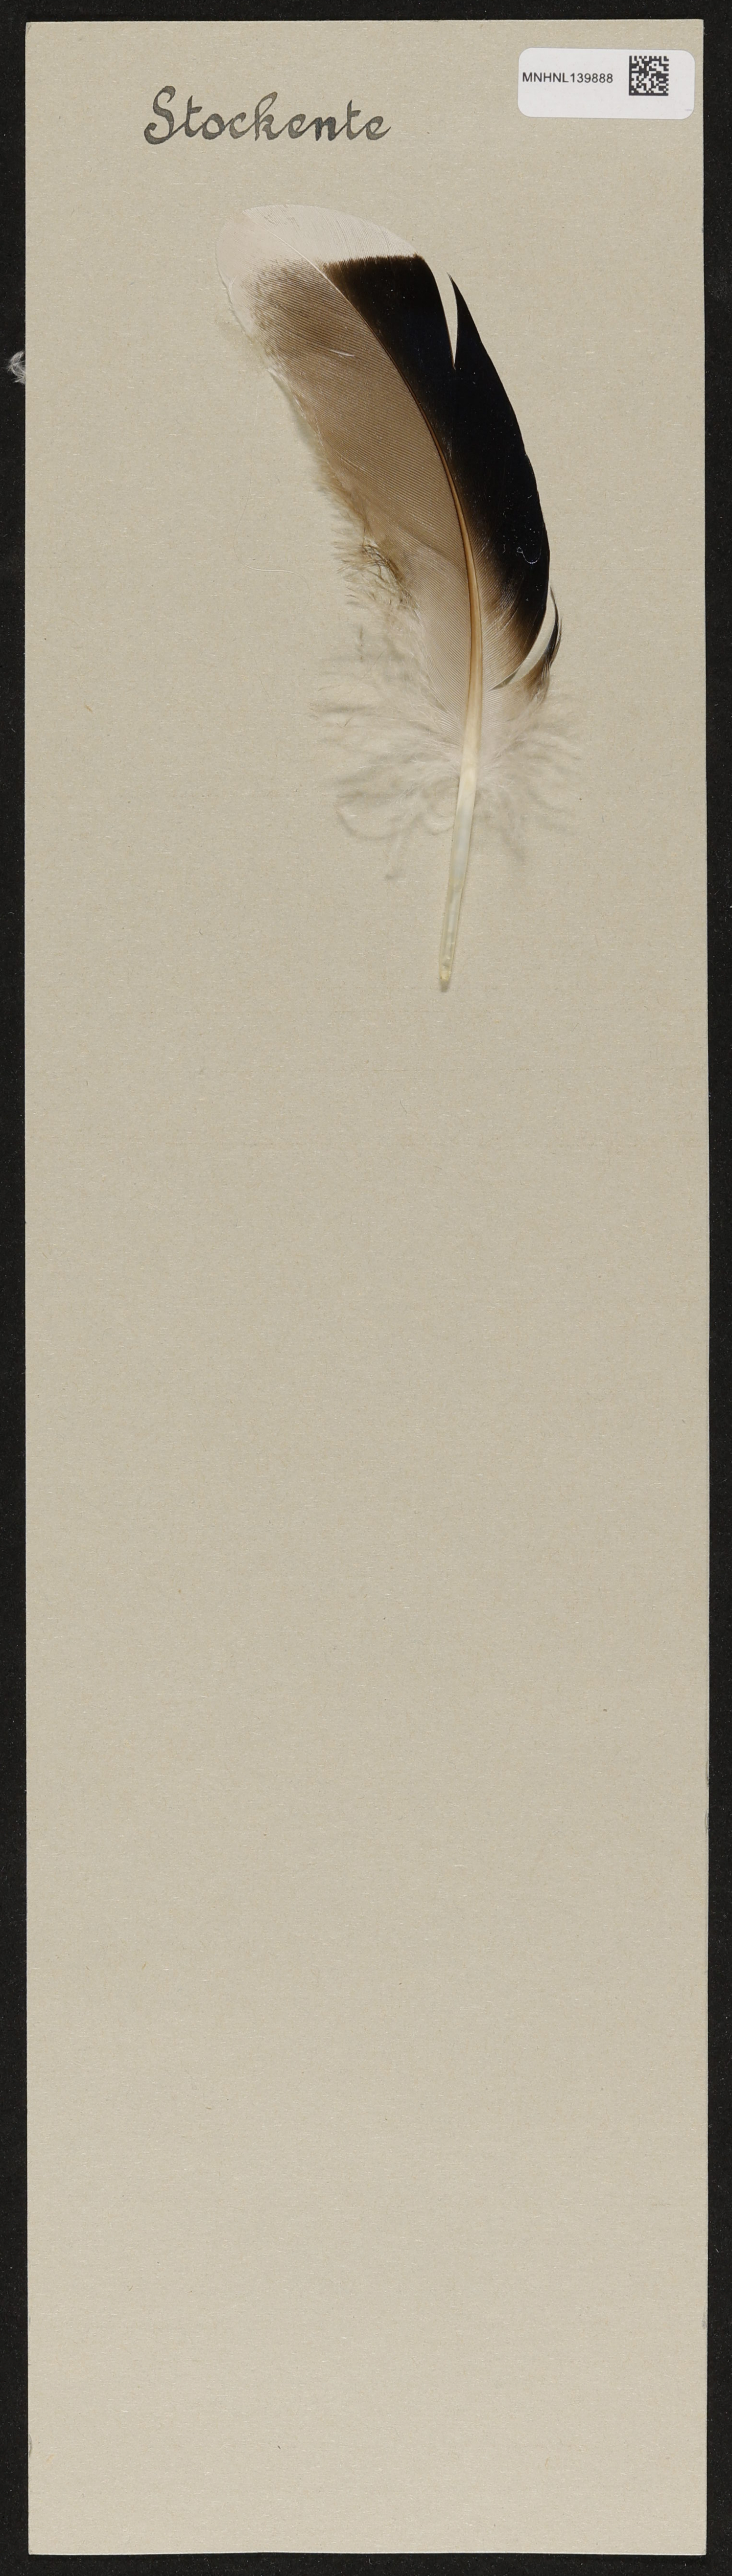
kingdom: Animalia
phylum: Chordata
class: Aves
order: Anseriformes
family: Anatidae
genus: Anas
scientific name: Anas platyrhynchos
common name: Mallard
